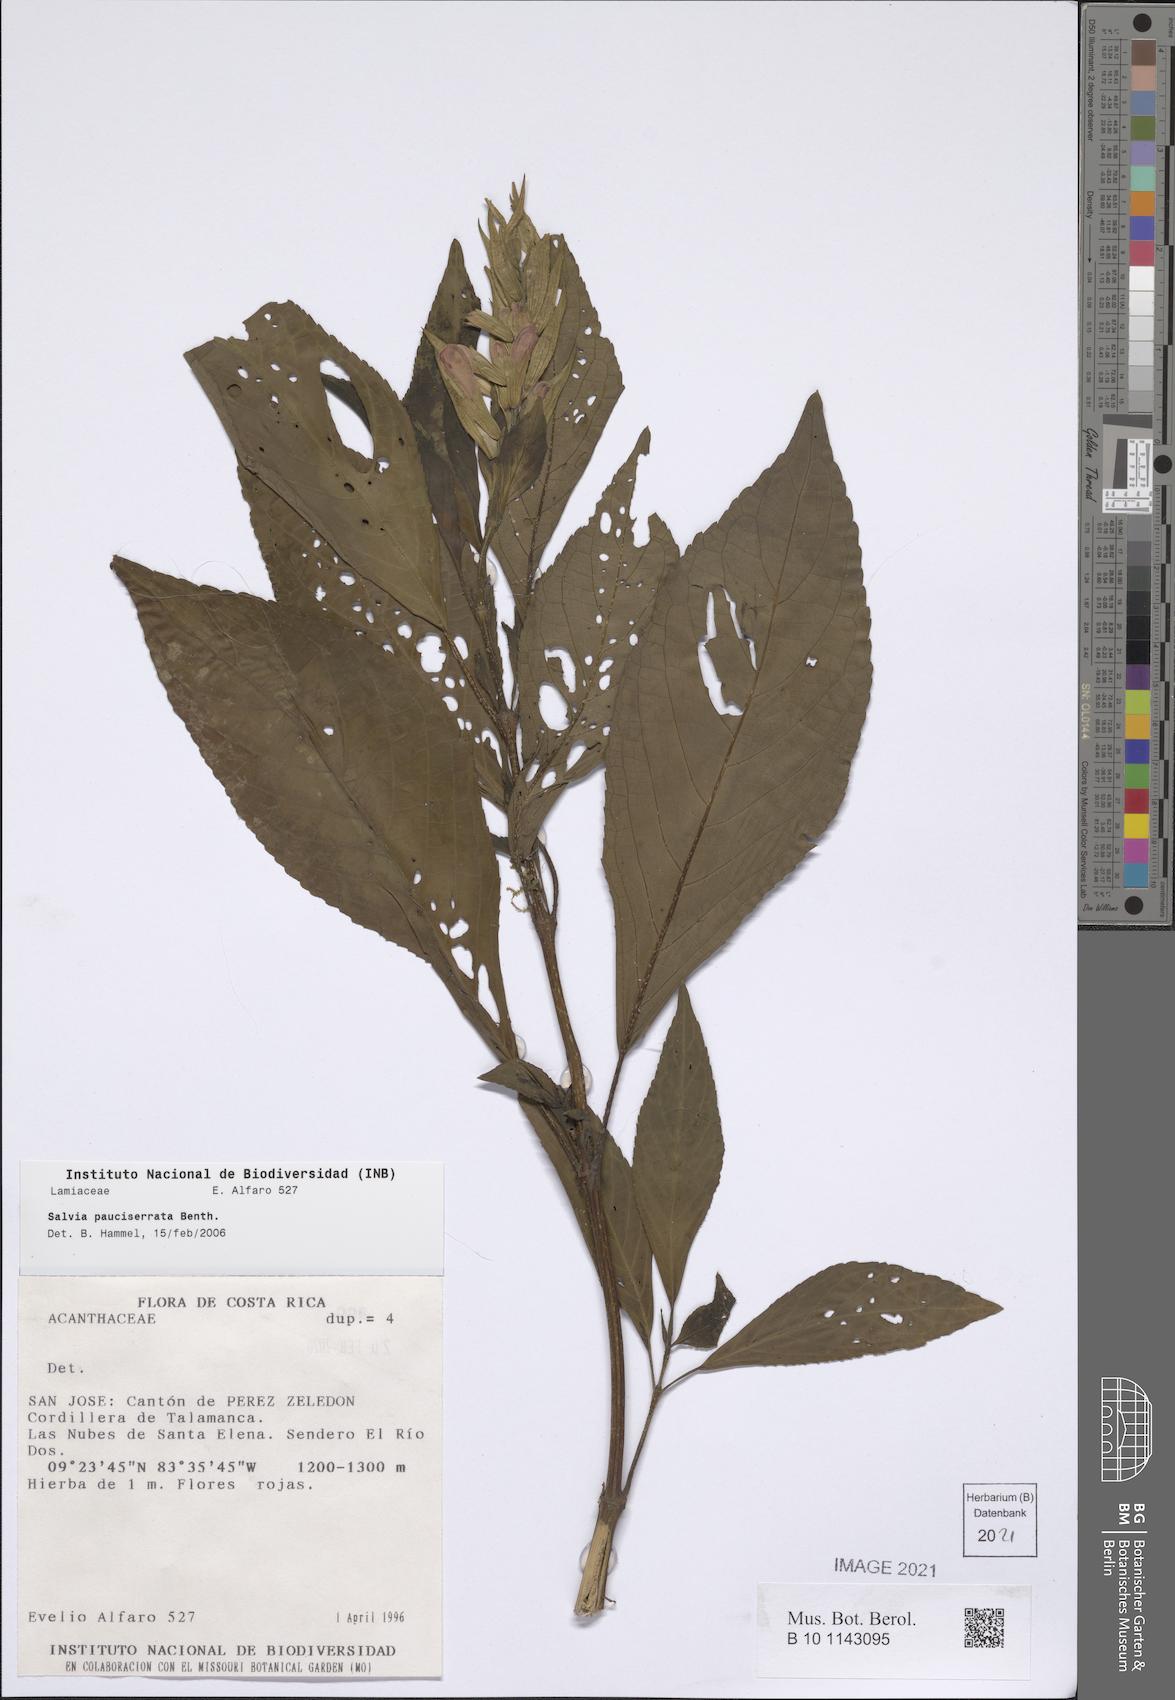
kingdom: Plantae
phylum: Tracheophyta
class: Magnoliopsida
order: Lamiales
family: Lamiaceae
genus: Salvia
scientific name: Salvia pauciserrata
